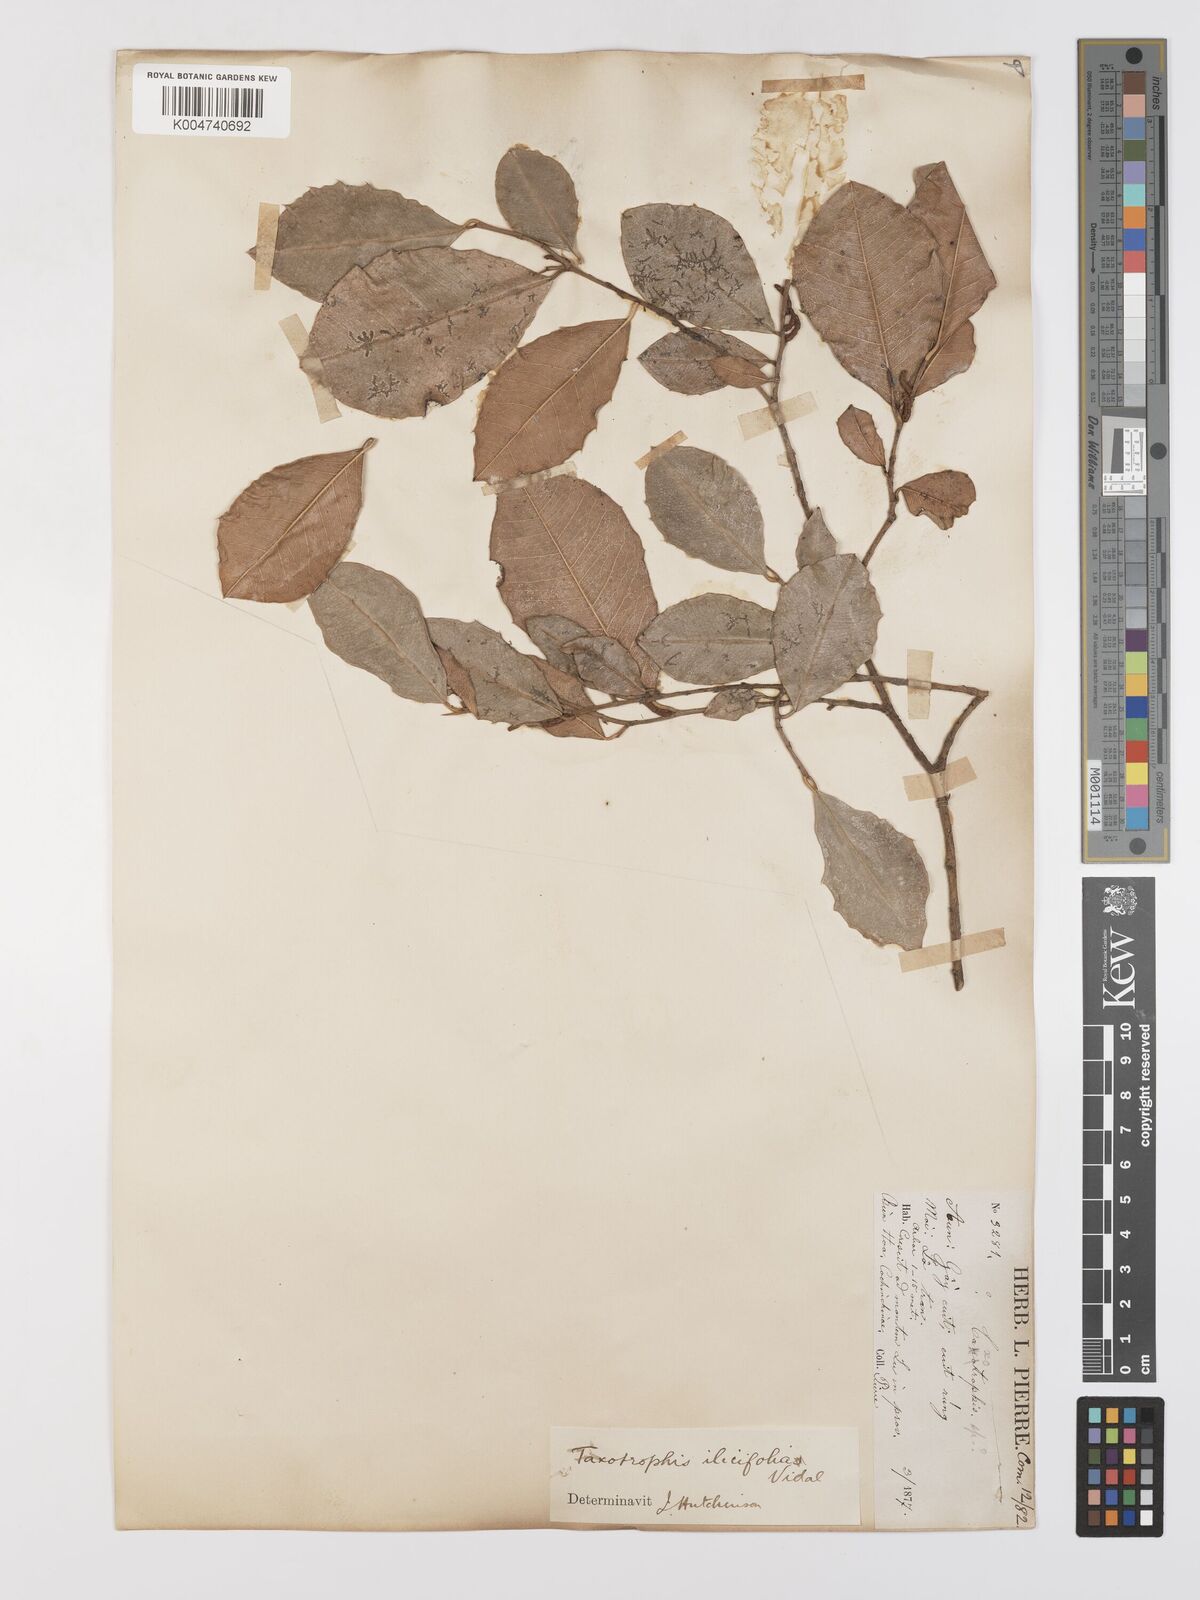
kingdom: Plantae
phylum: Tracheophyta
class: Magnoliopsida
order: Rosales
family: Moraceae
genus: Taxotrophis
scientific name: Taxotrophis ilicifolia
